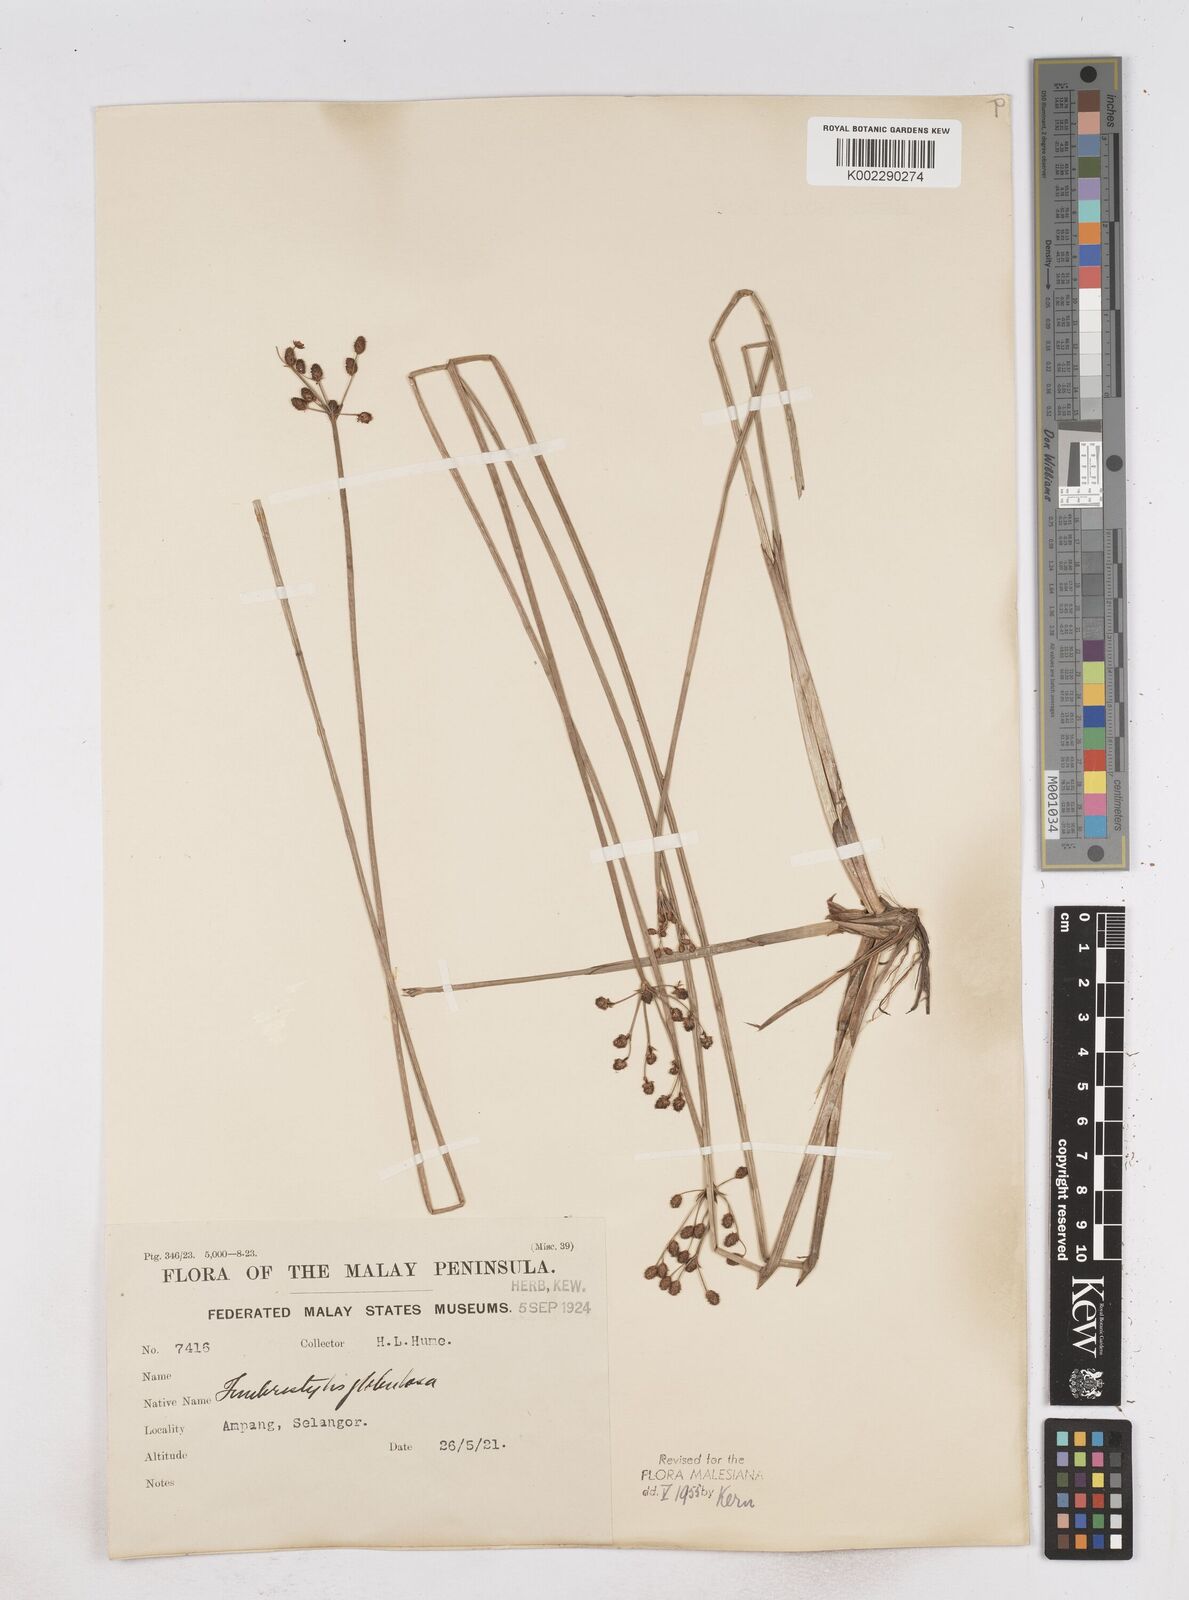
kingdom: Plantae
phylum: Tracheophyta
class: Liliopsida
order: Poales
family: Cyperaceae
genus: Fimbristylis
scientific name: Fimbristylis umbellaris
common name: Globular fimbristylis
